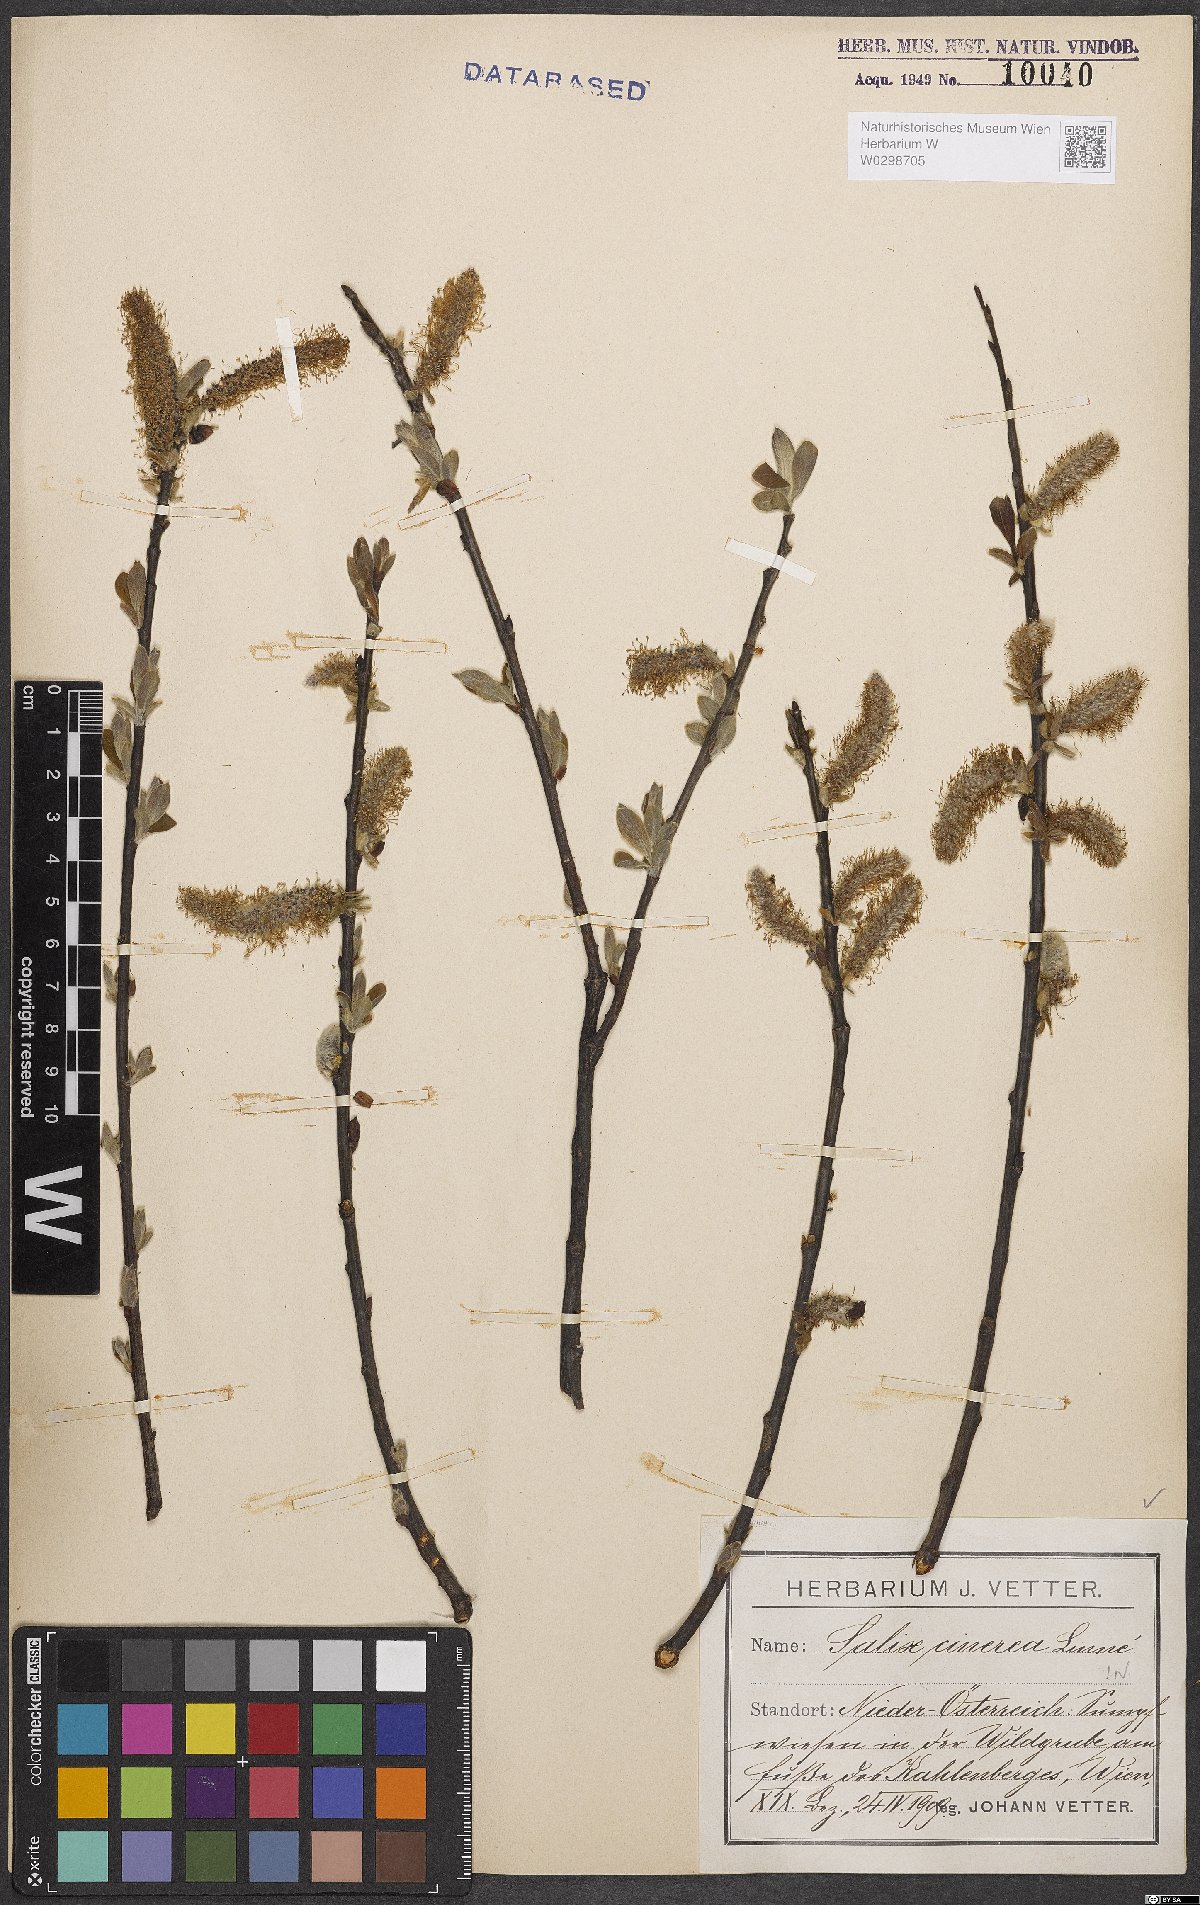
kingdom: Plantae
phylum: Tracheophyta
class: Magnoliopsida
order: Malpighiales
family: Salicaceae
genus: Salix
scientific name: Salix cinerea
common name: Common sallow
